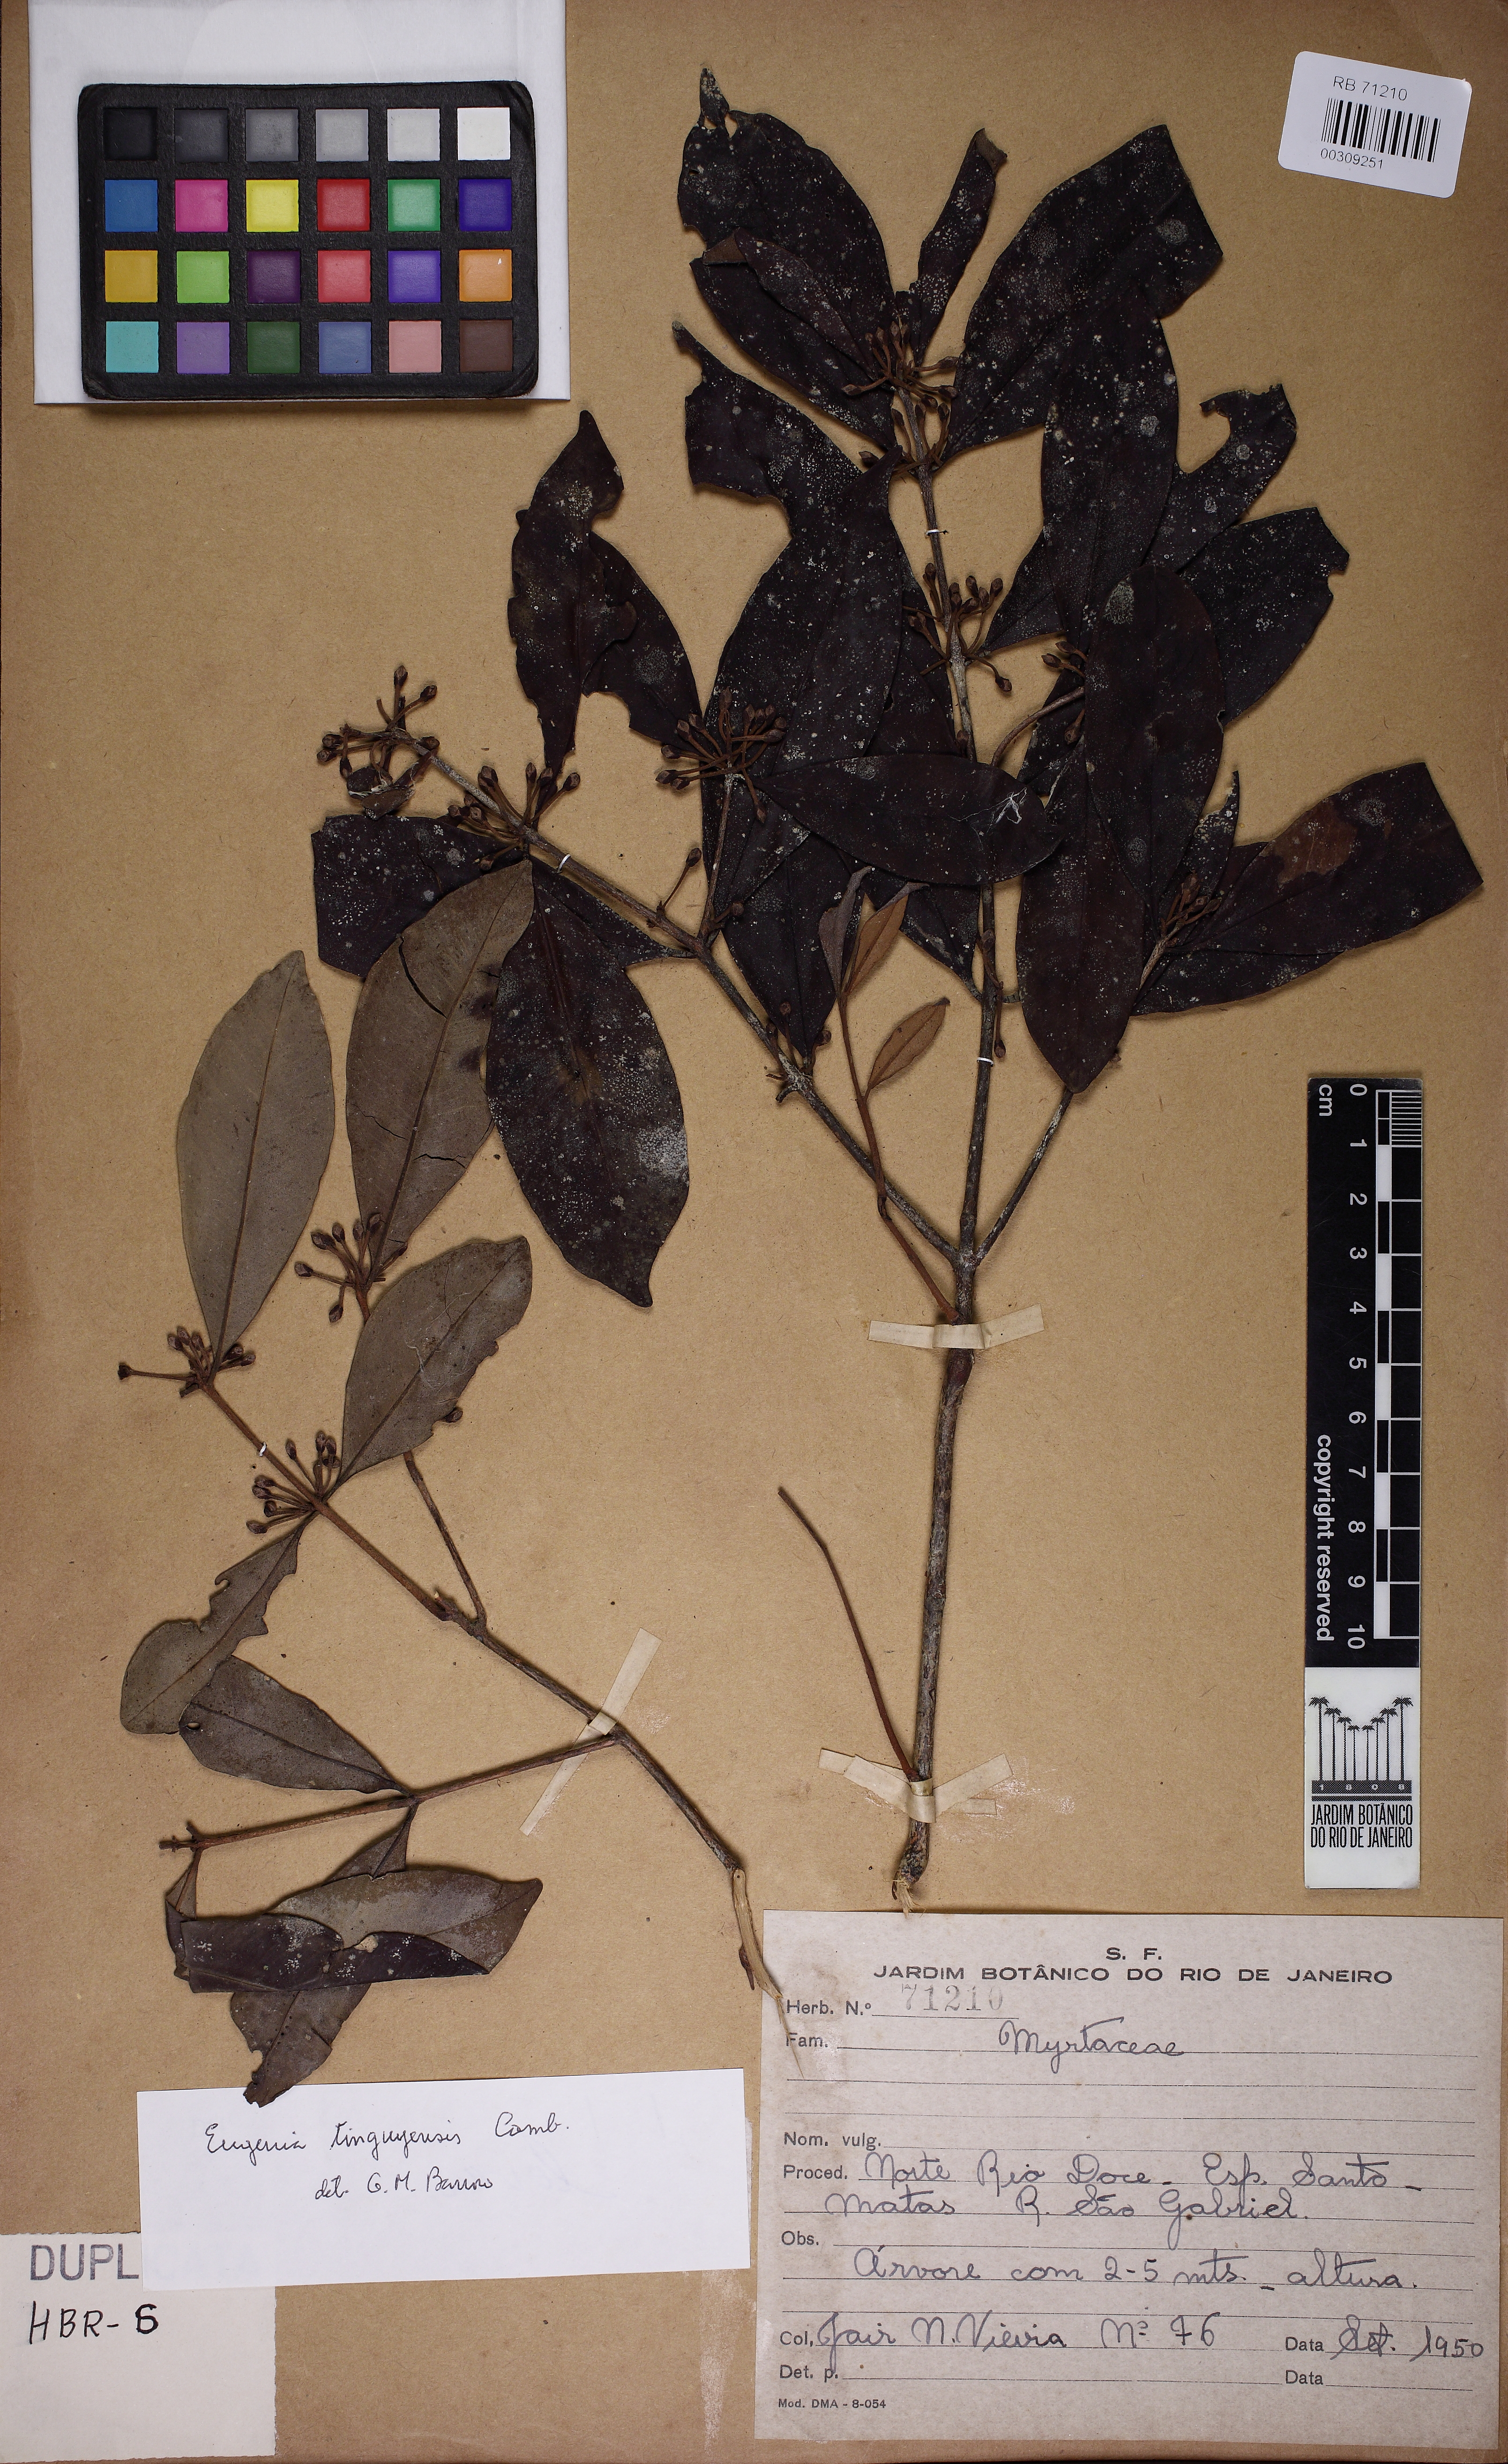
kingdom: Plantae
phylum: Tracheophyta
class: Magnoliopsida
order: Myrtales
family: Myrtaceae
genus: Eugenia
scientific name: Eugenia pisiformis
